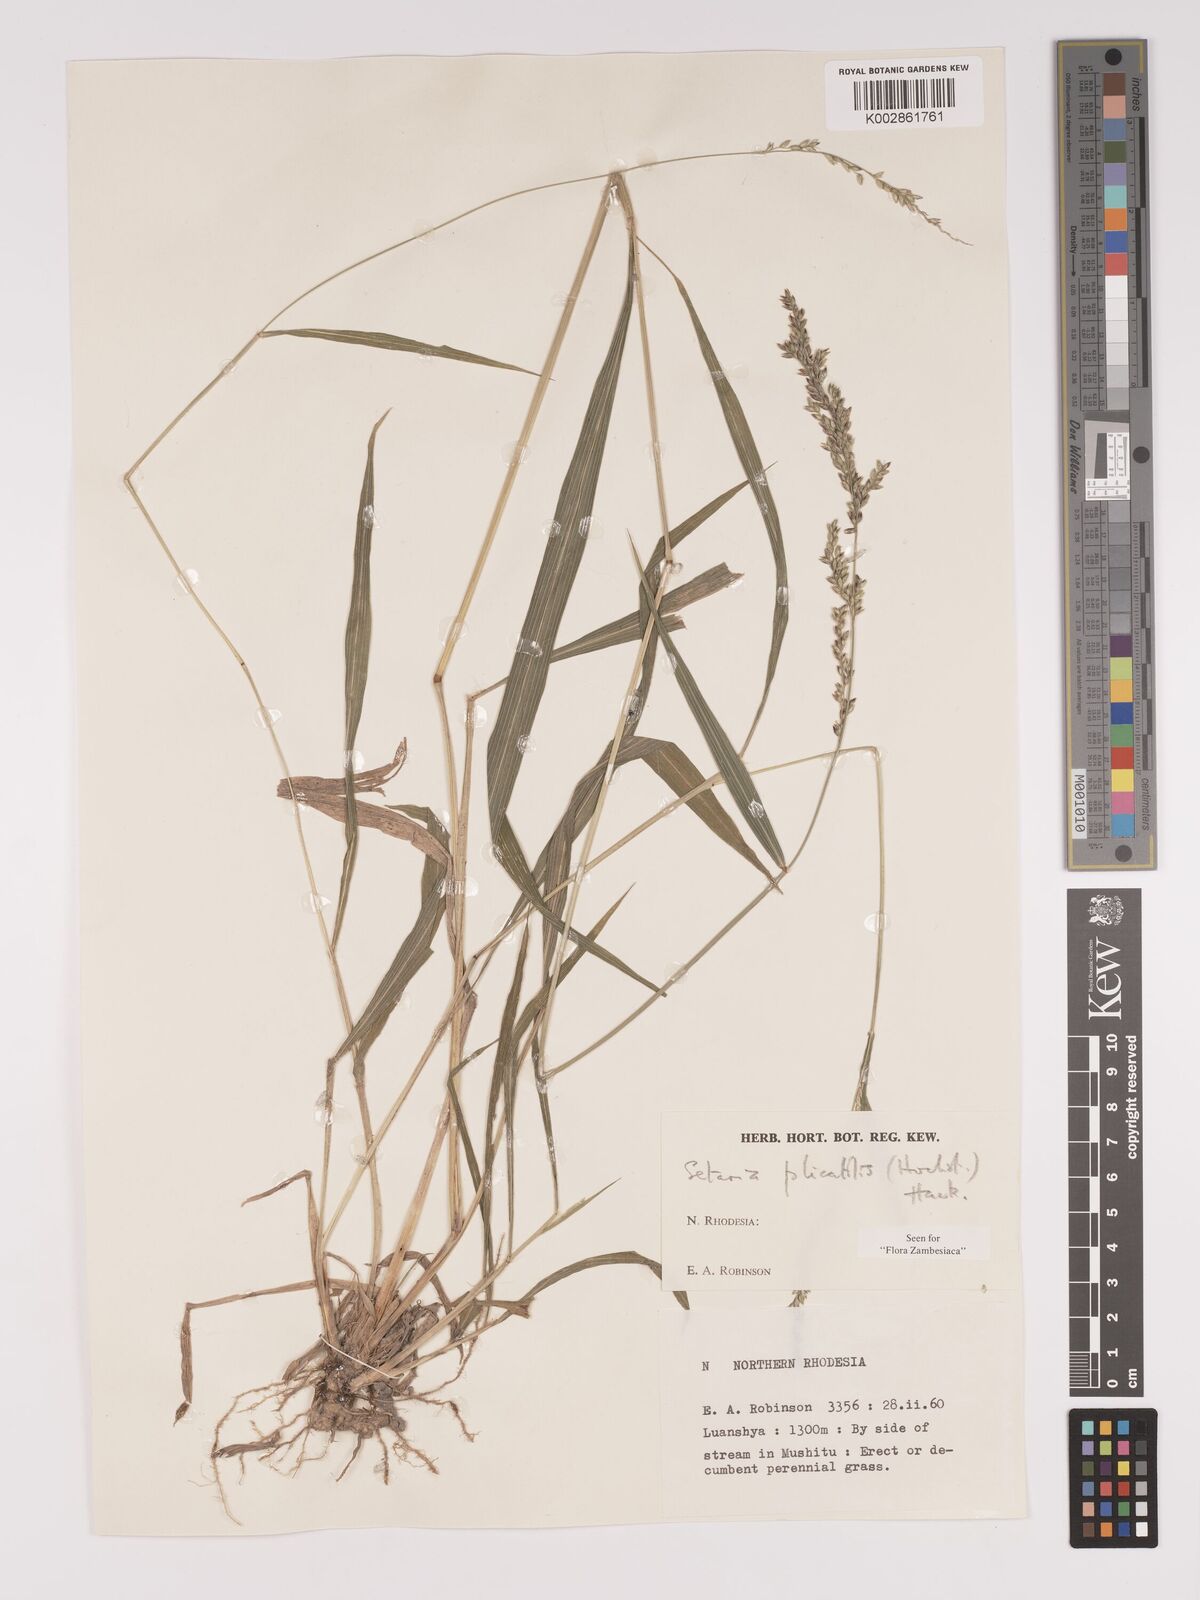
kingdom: Plantae
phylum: Tracheophyta
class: Liliopsida
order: Poales
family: Poaceae
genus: Setaria
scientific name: Setaria megaphylla
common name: Bigleaf bristlegrass
